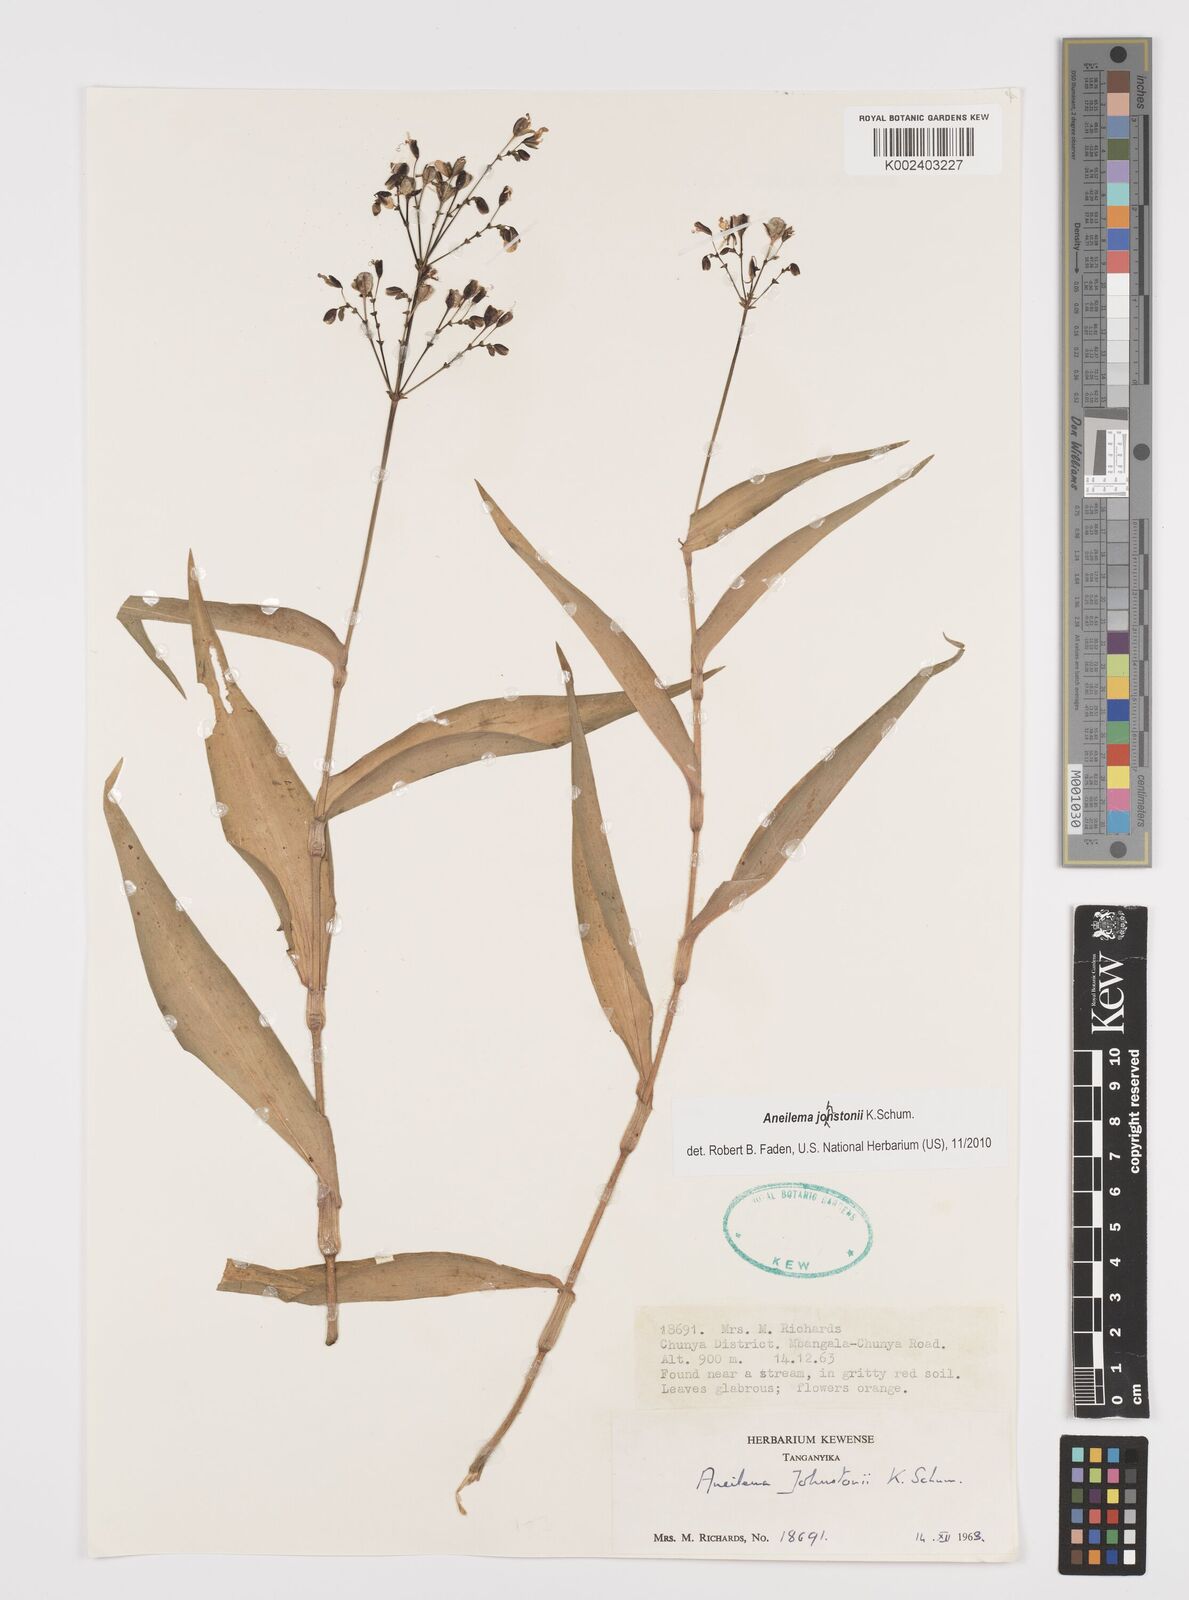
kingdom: Plantae
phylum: Tracheophyta
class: Liliopsida
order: Commelinales
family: Commelinaceae
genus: Aneilema
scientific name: Aneilema johnstonii
